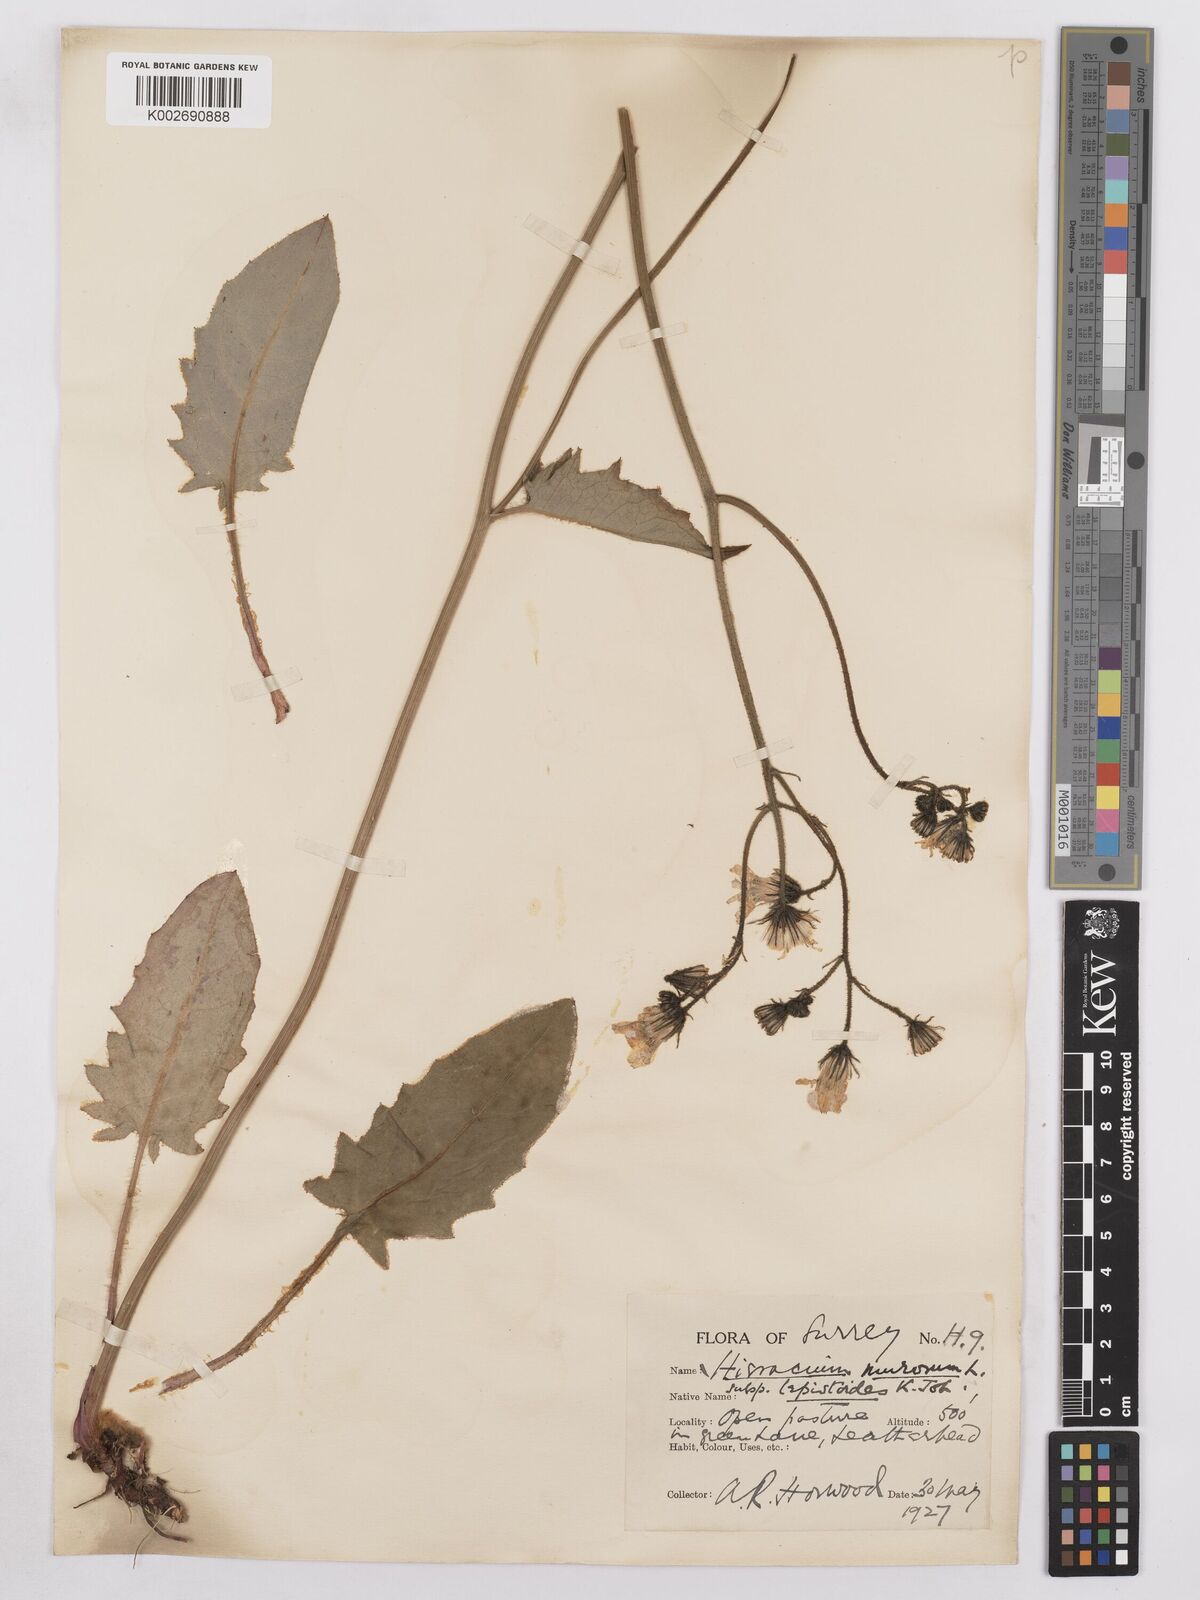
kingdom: Plantae
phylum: Tracheophyta
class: Magnoliopsida
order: Asterales
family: Asteraceae
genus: Hieracium
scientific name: Hieracium murorum
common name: Wall hawkweed
